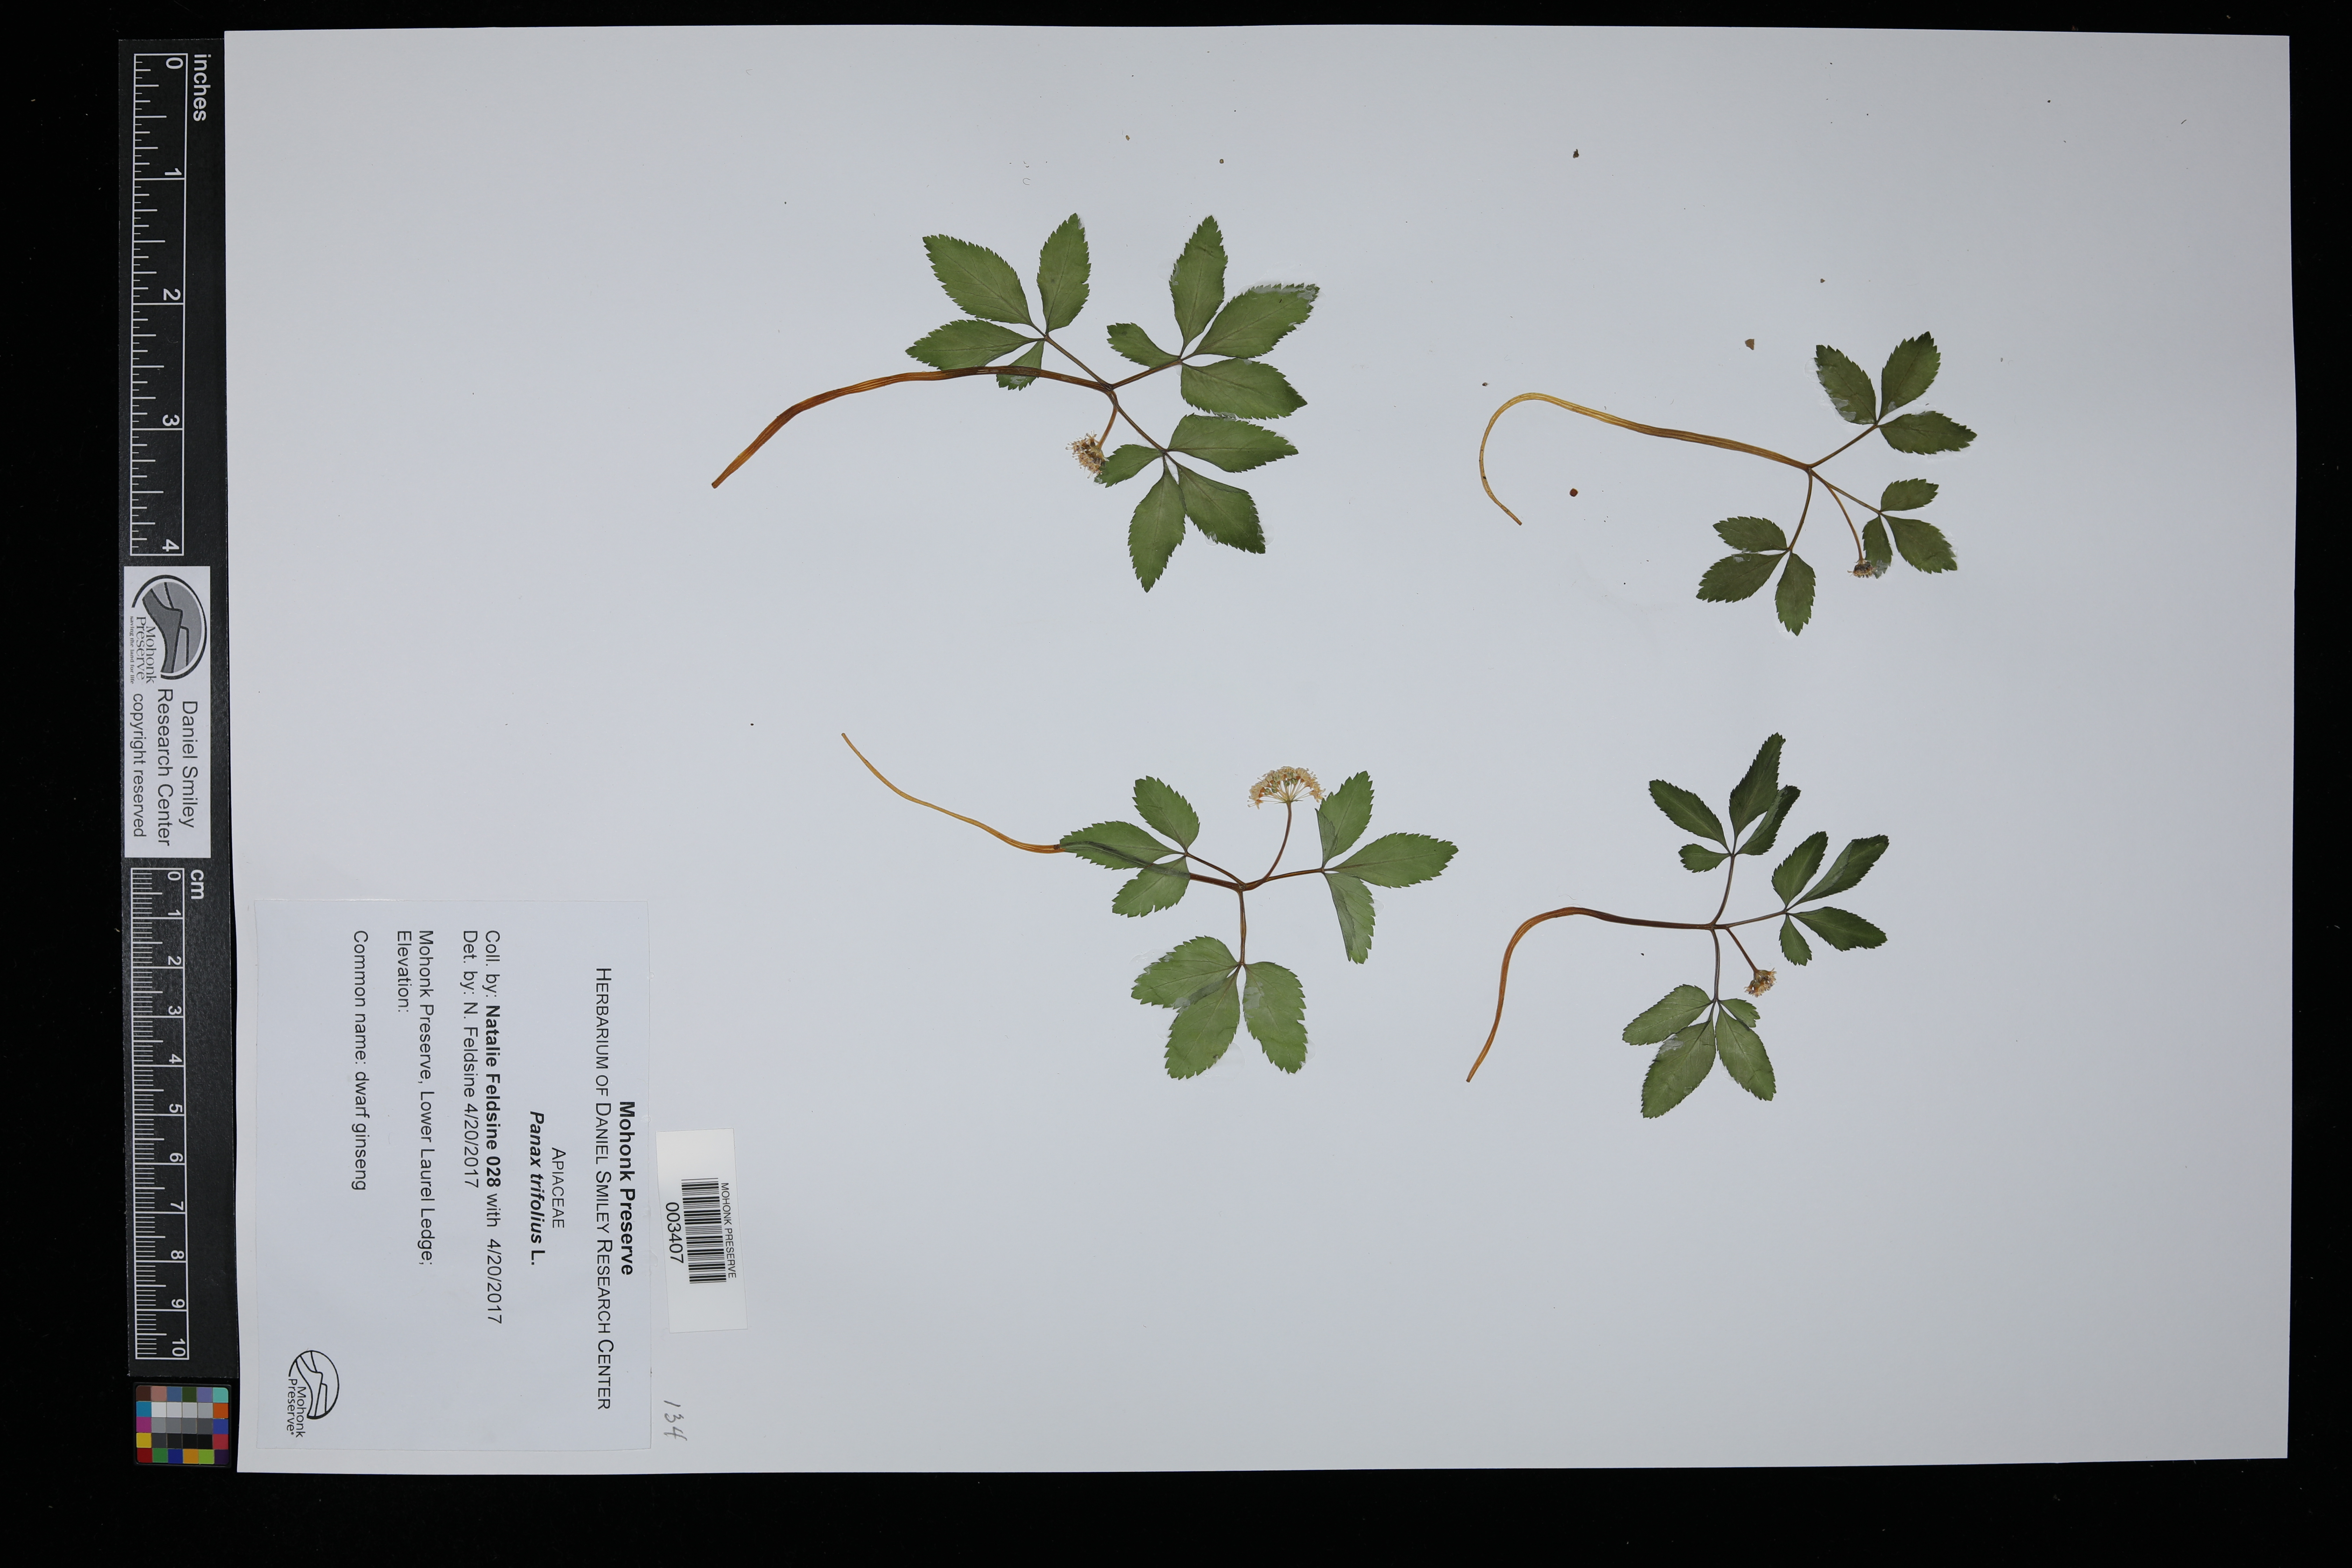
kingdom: Plantae
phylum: Tracheophyta
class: Magnoliopsida
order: Apiales
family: Araliaceae
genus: Panax
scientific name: Panax trifolius
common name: Dwarf ginseng
